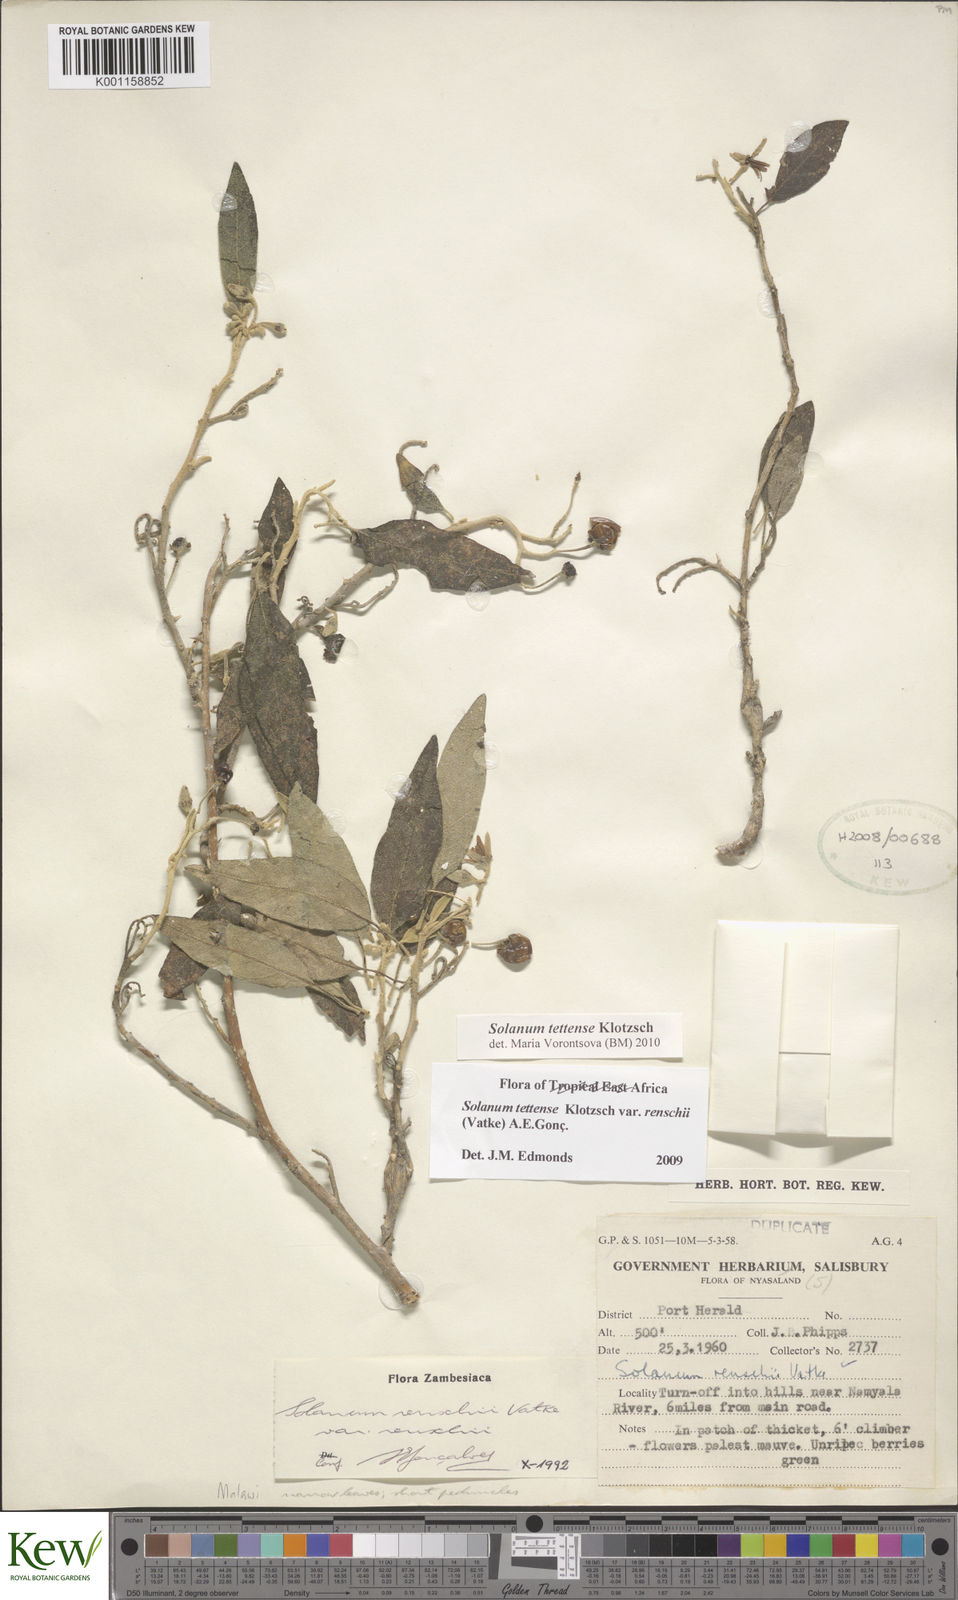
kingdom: Plantae
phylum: Tracheophyta
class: Magnoliopsida
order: Solanales
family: Solanaceae
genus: Solanum
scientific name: Solanum tettense
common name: Mozambique bitter apple
